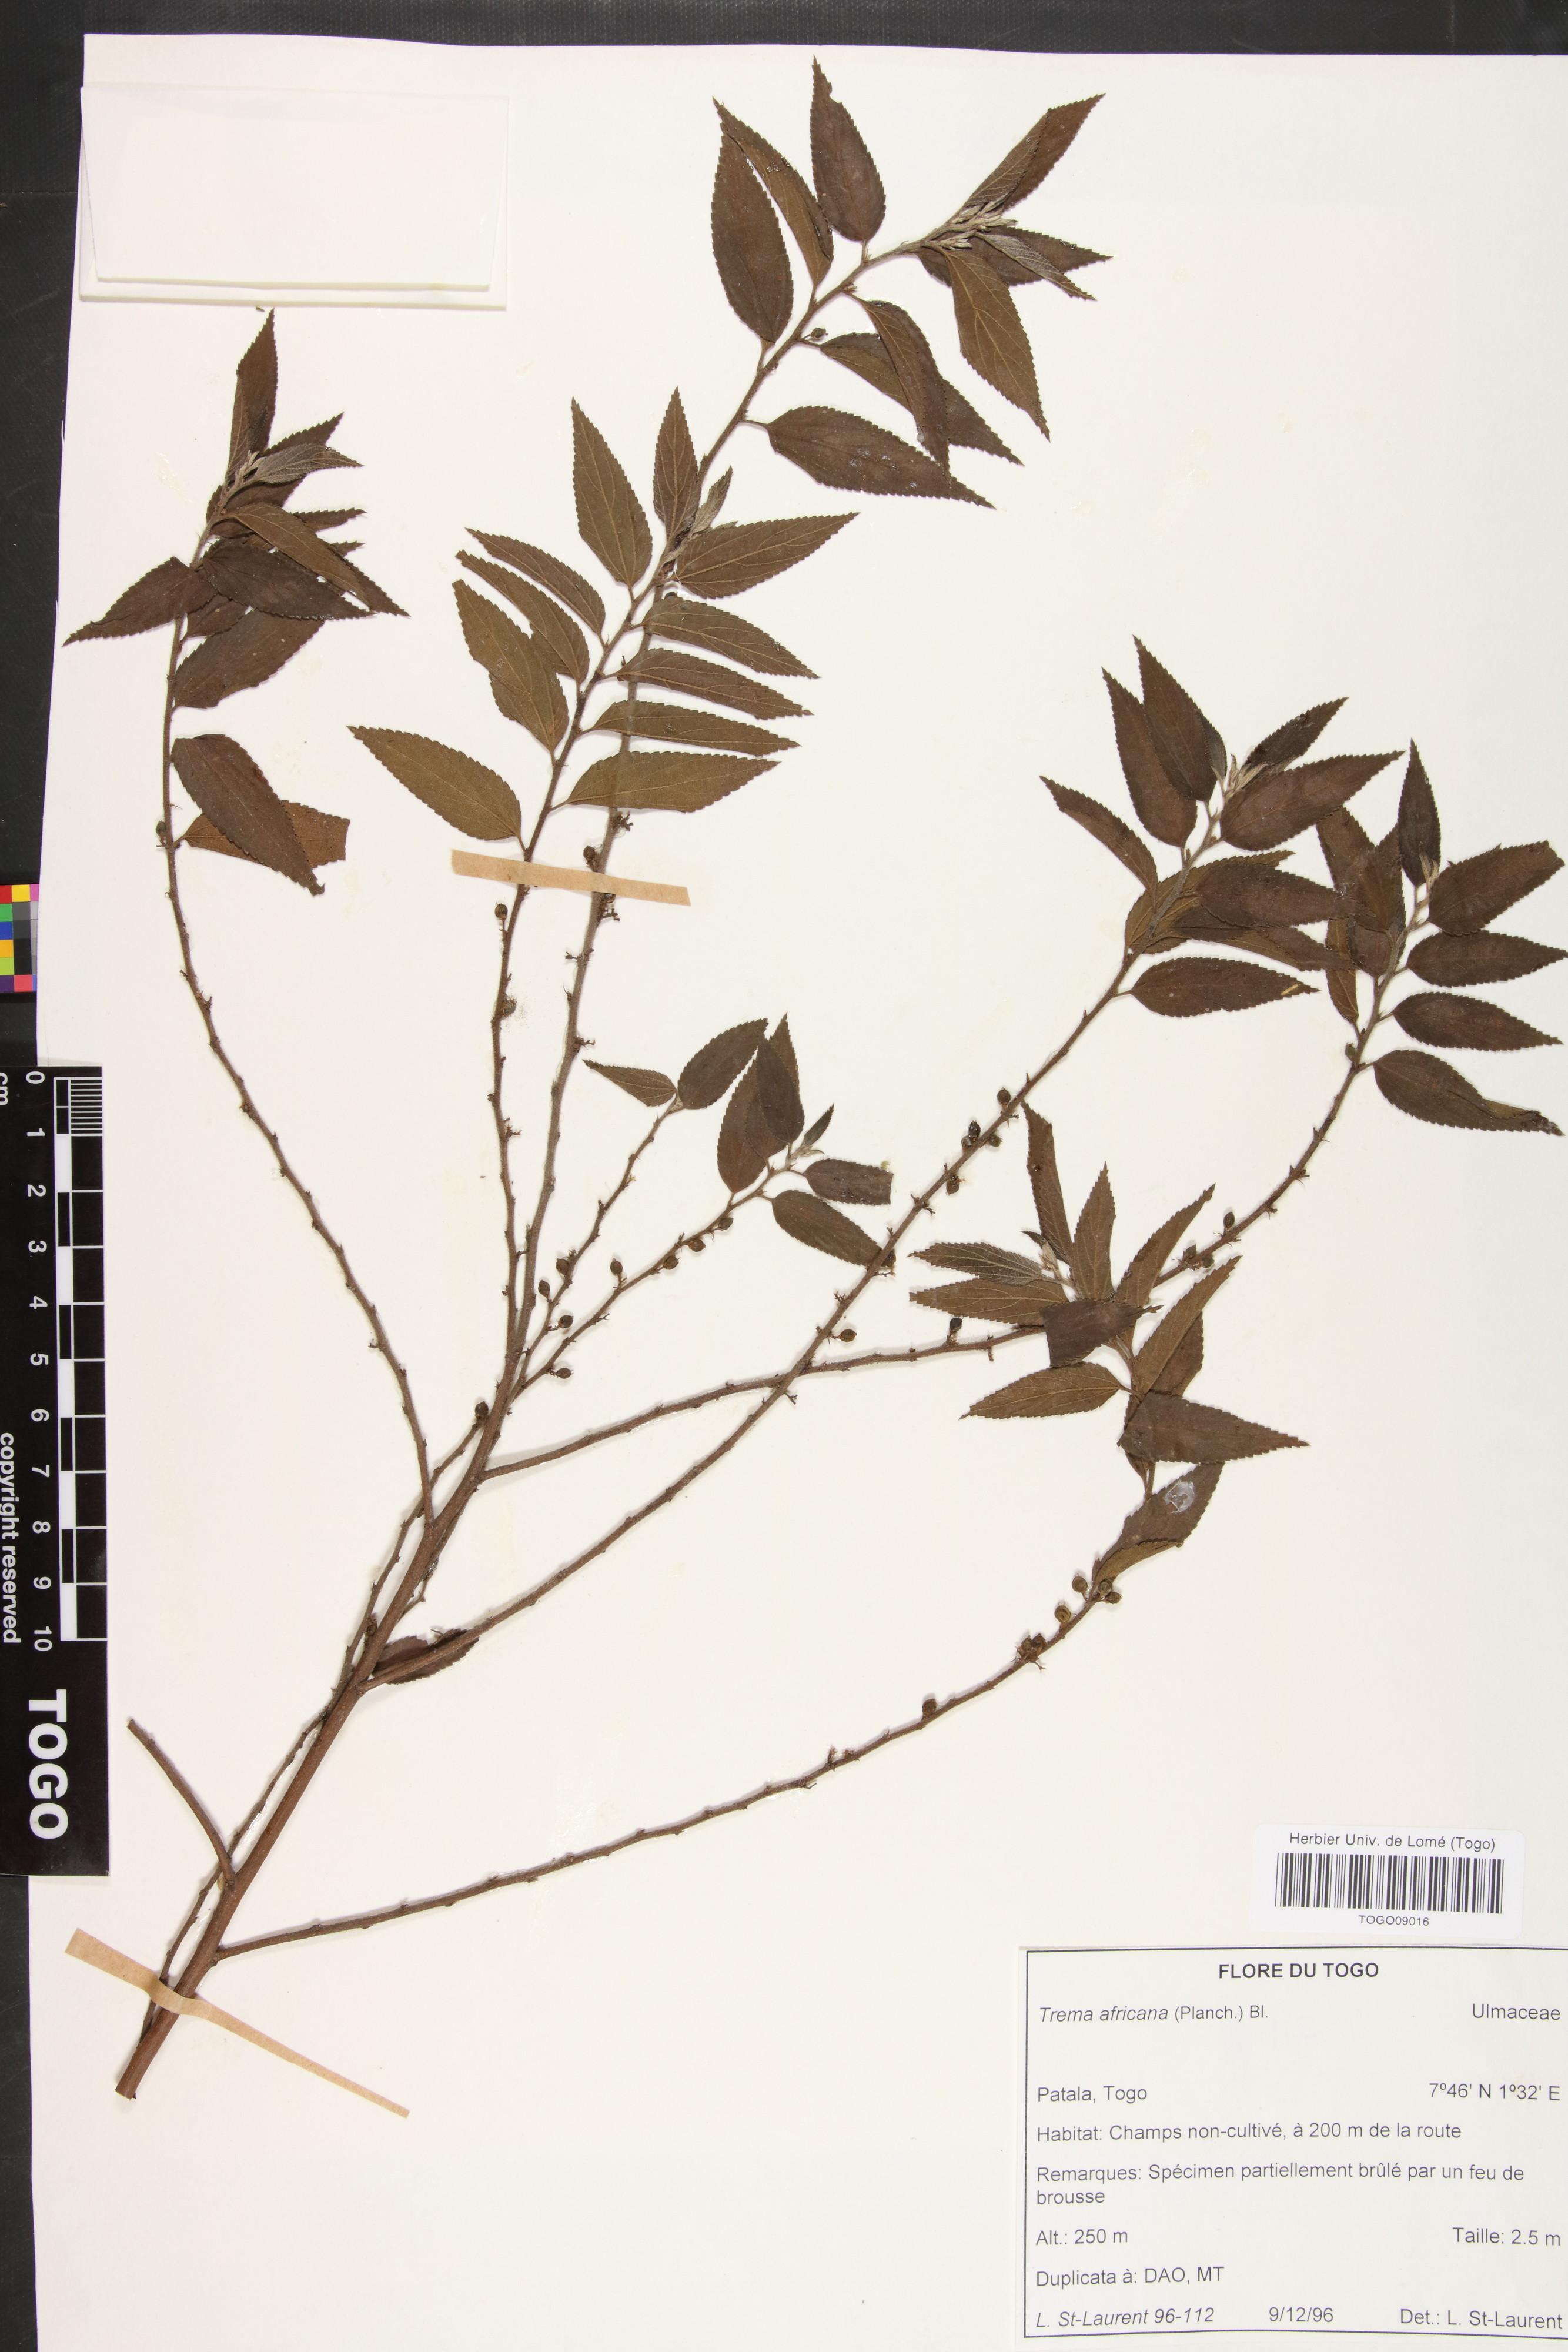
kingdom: Plantae
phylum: Tracheophyta
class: Magnoliopsida
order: Rosales
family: Cannabaceae
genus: Trema
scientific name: Trema orientale
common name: Indian charcoal tree
